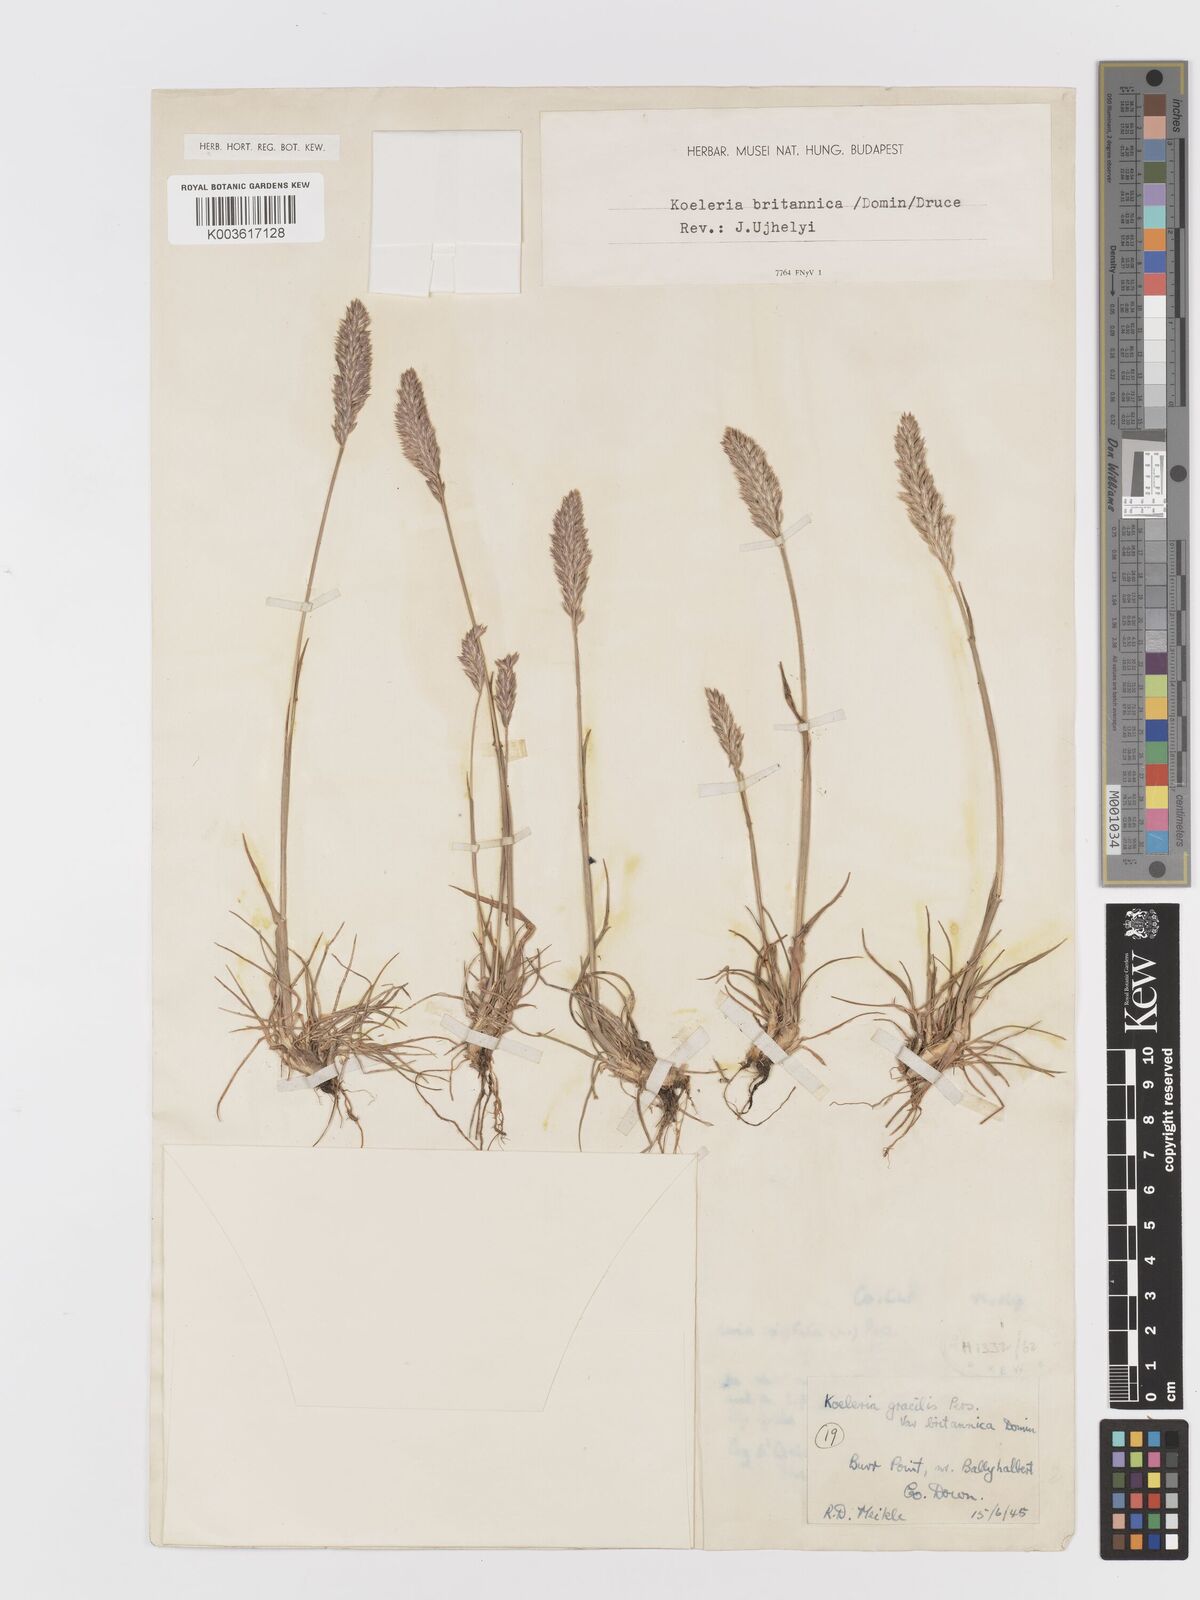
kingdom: Plantae
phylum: Tracheophyta
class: Liliopsida
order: Poales
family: Poaceae
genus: Koeleria
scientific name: Koeleria macrantha
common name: Crested hair-grass
